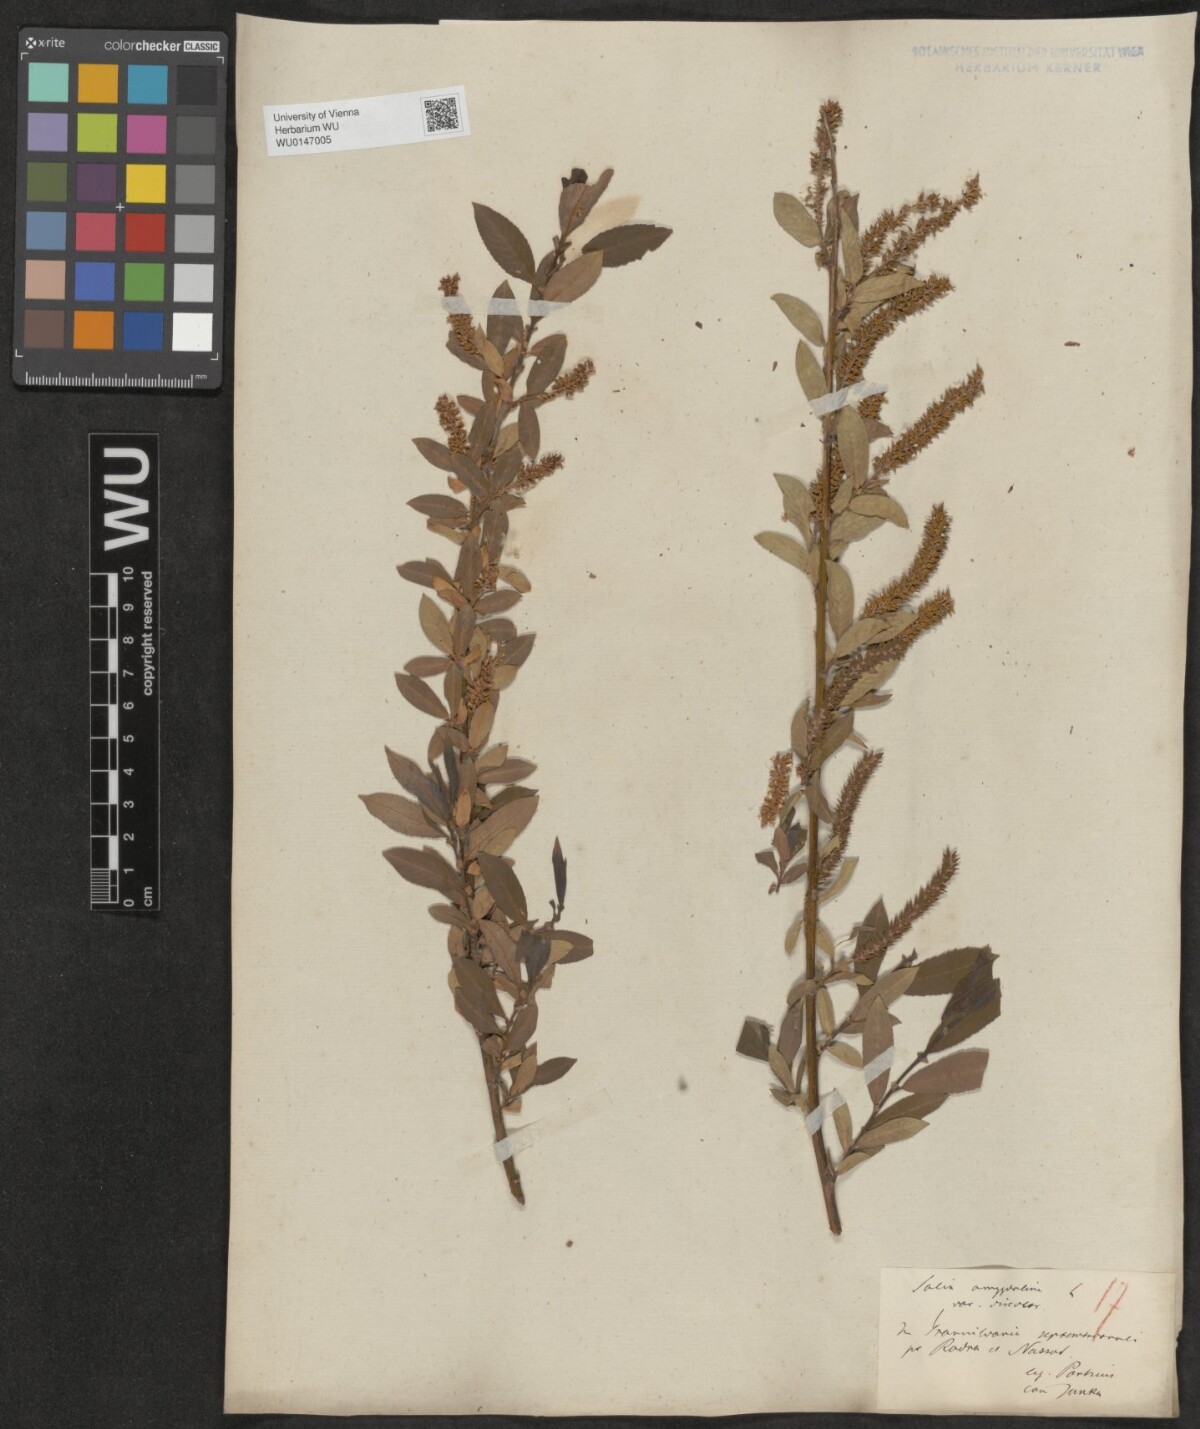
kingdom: Plantae
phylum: Tracheophyta
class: Magnoliopsida
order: Malpighiales
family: Salicaceae
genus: Salix
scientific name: Salix triandra
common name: Almond willow
